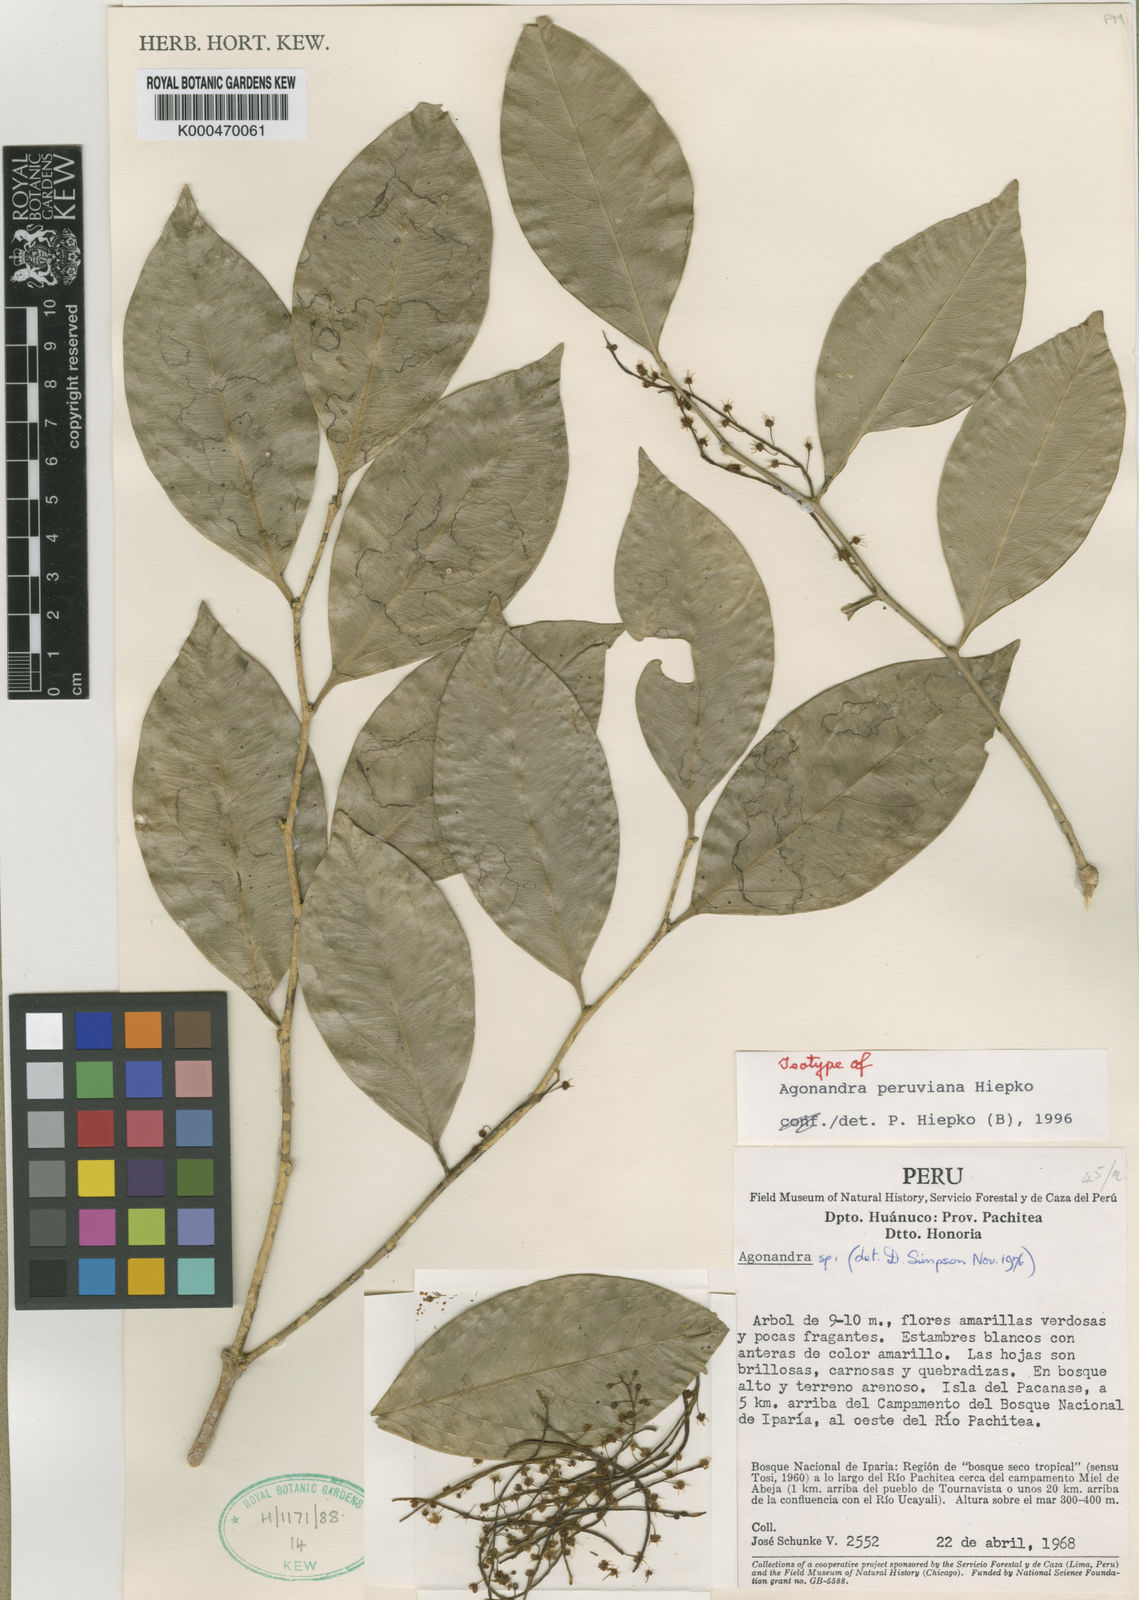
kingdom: Plantae
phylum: Tracheophyta
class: Magnoliopsida
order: Santalales
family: Opiliaceae
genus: Agonandra
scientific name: Agonandra peruviana
